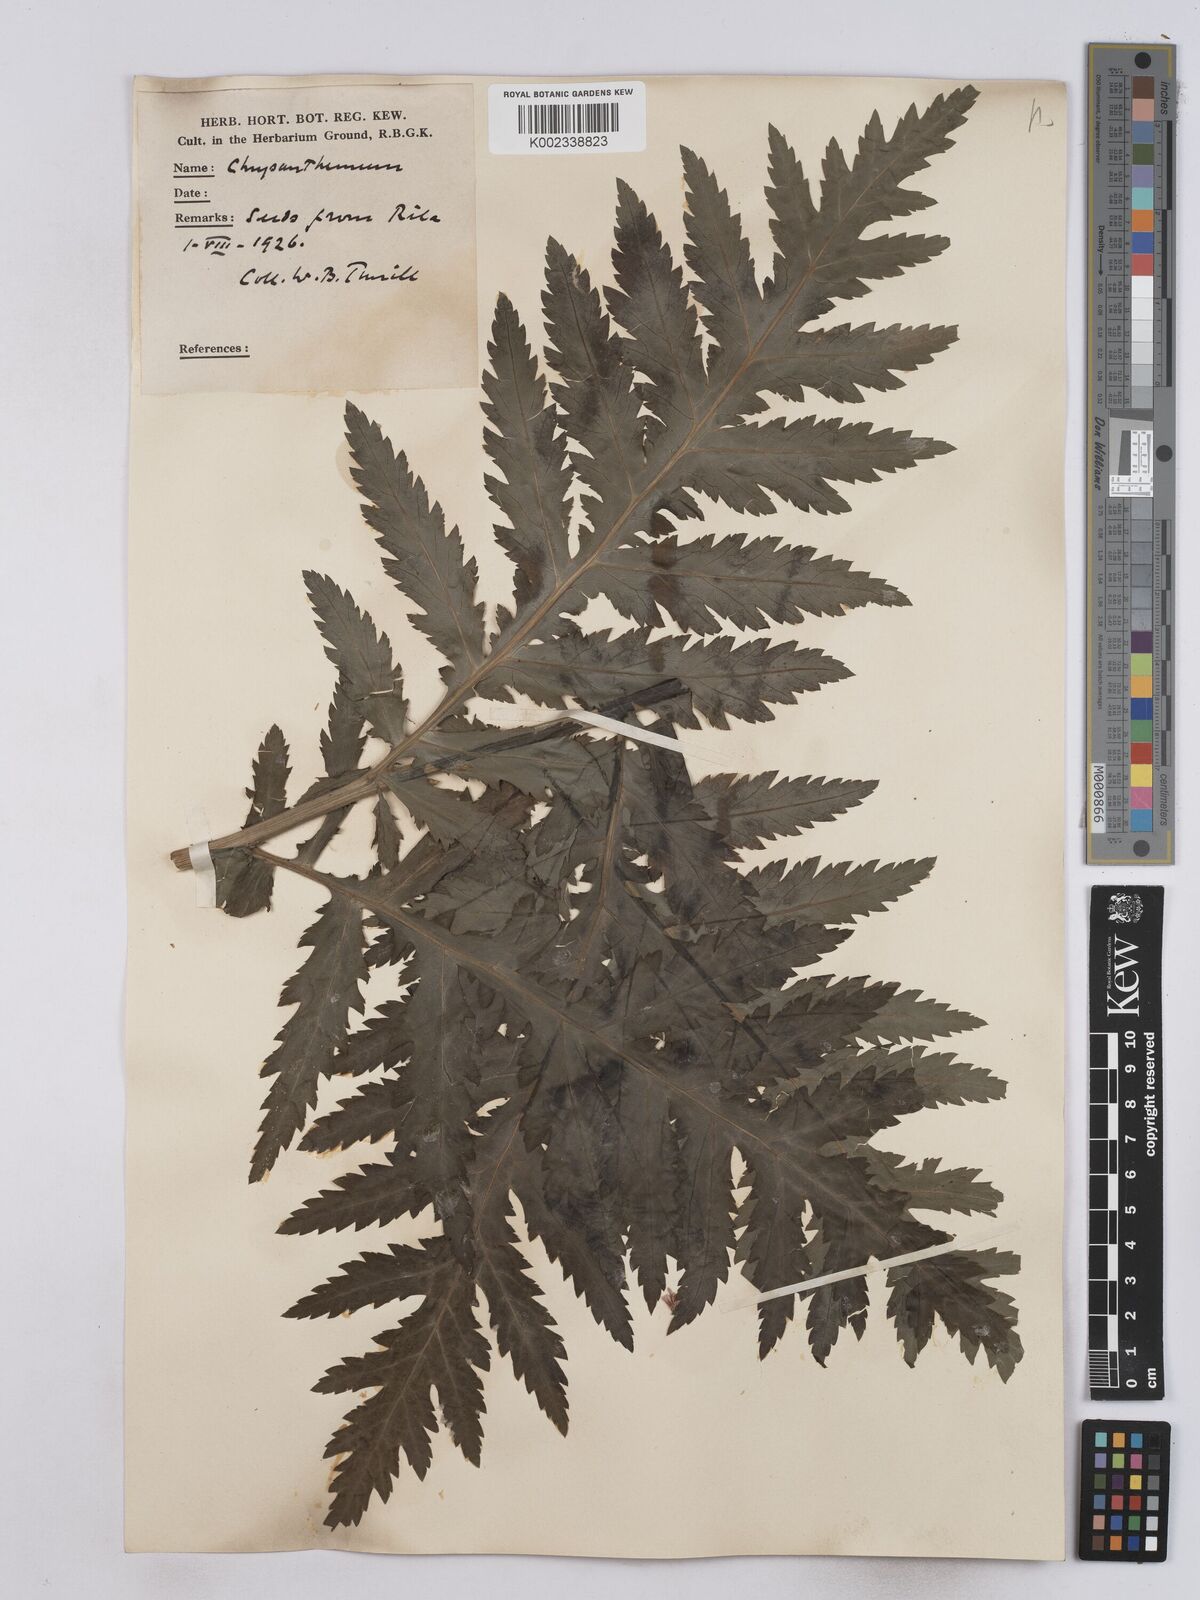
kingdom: Plantae
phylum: Tracheophyta
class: Magnoliopsida
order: Asterales
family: Asteraceae
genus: Tanacetum
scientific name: Tanacetum macrophyllum
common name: Rayed tansy
